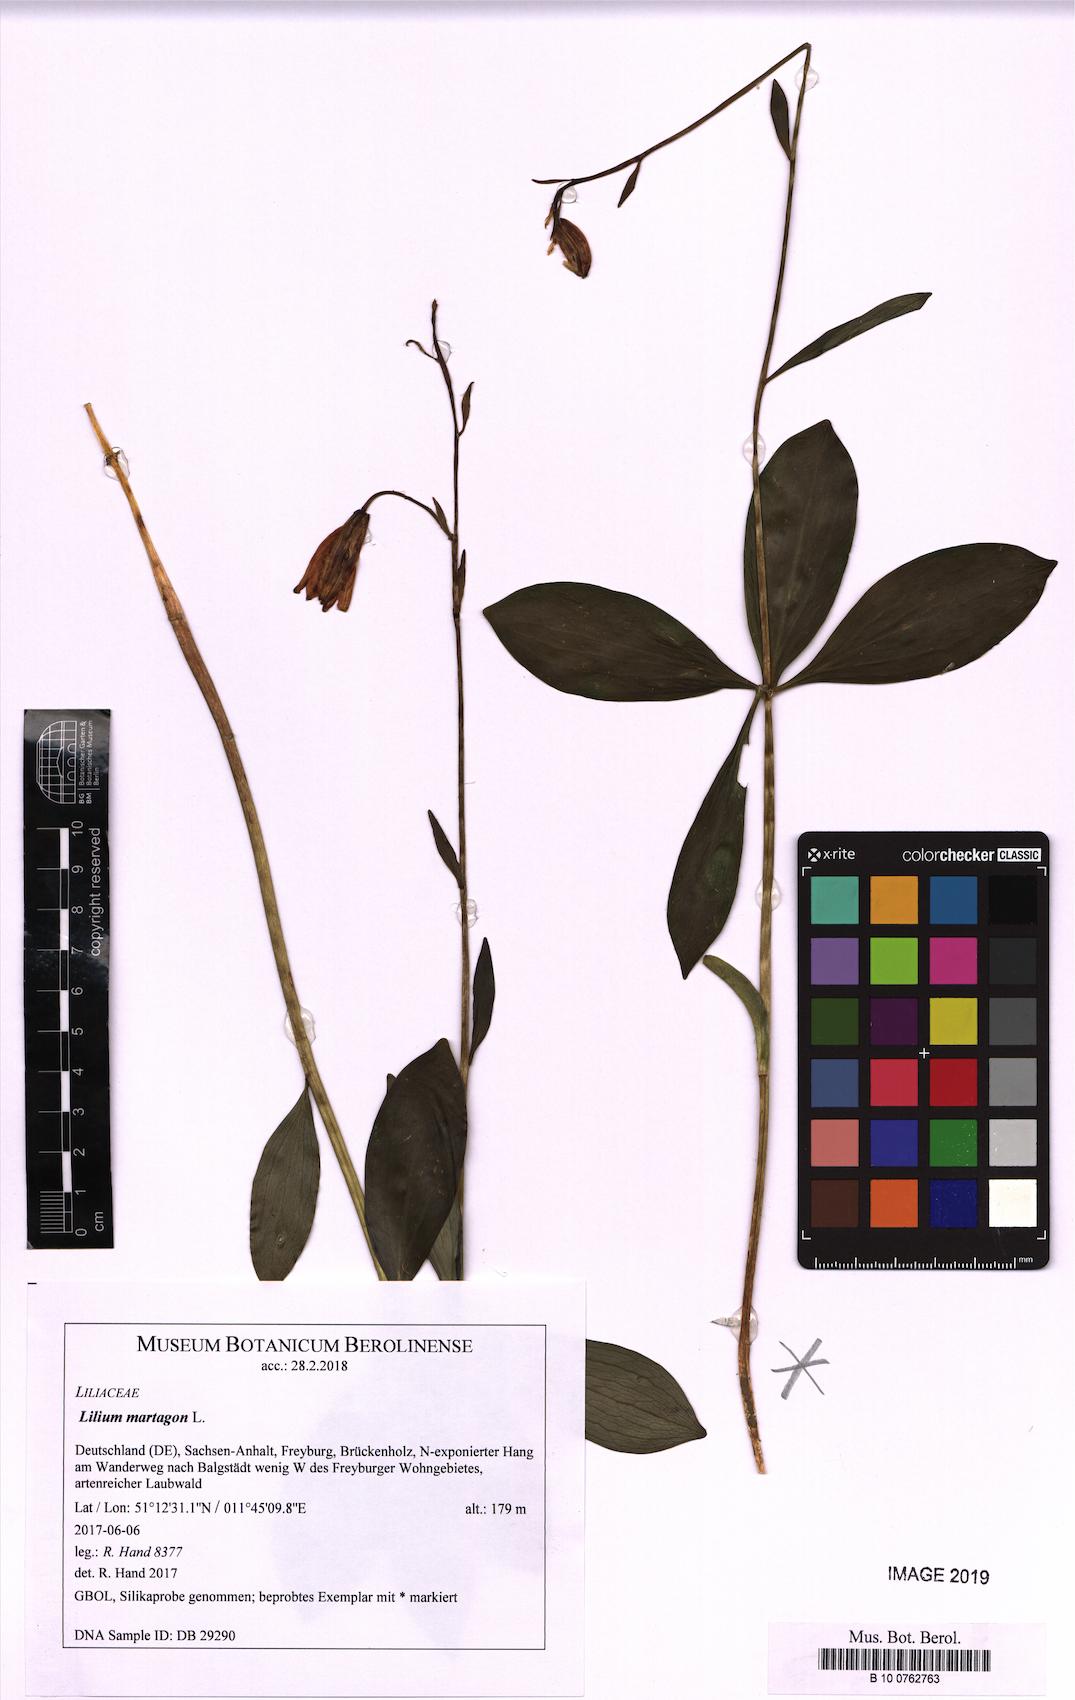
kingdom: Plantae
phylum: Tracheophyta
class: Liliopsida
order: Liliales
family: Liliaceae
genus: Lilium
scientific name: Lilium martagon
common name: Martagon lily
